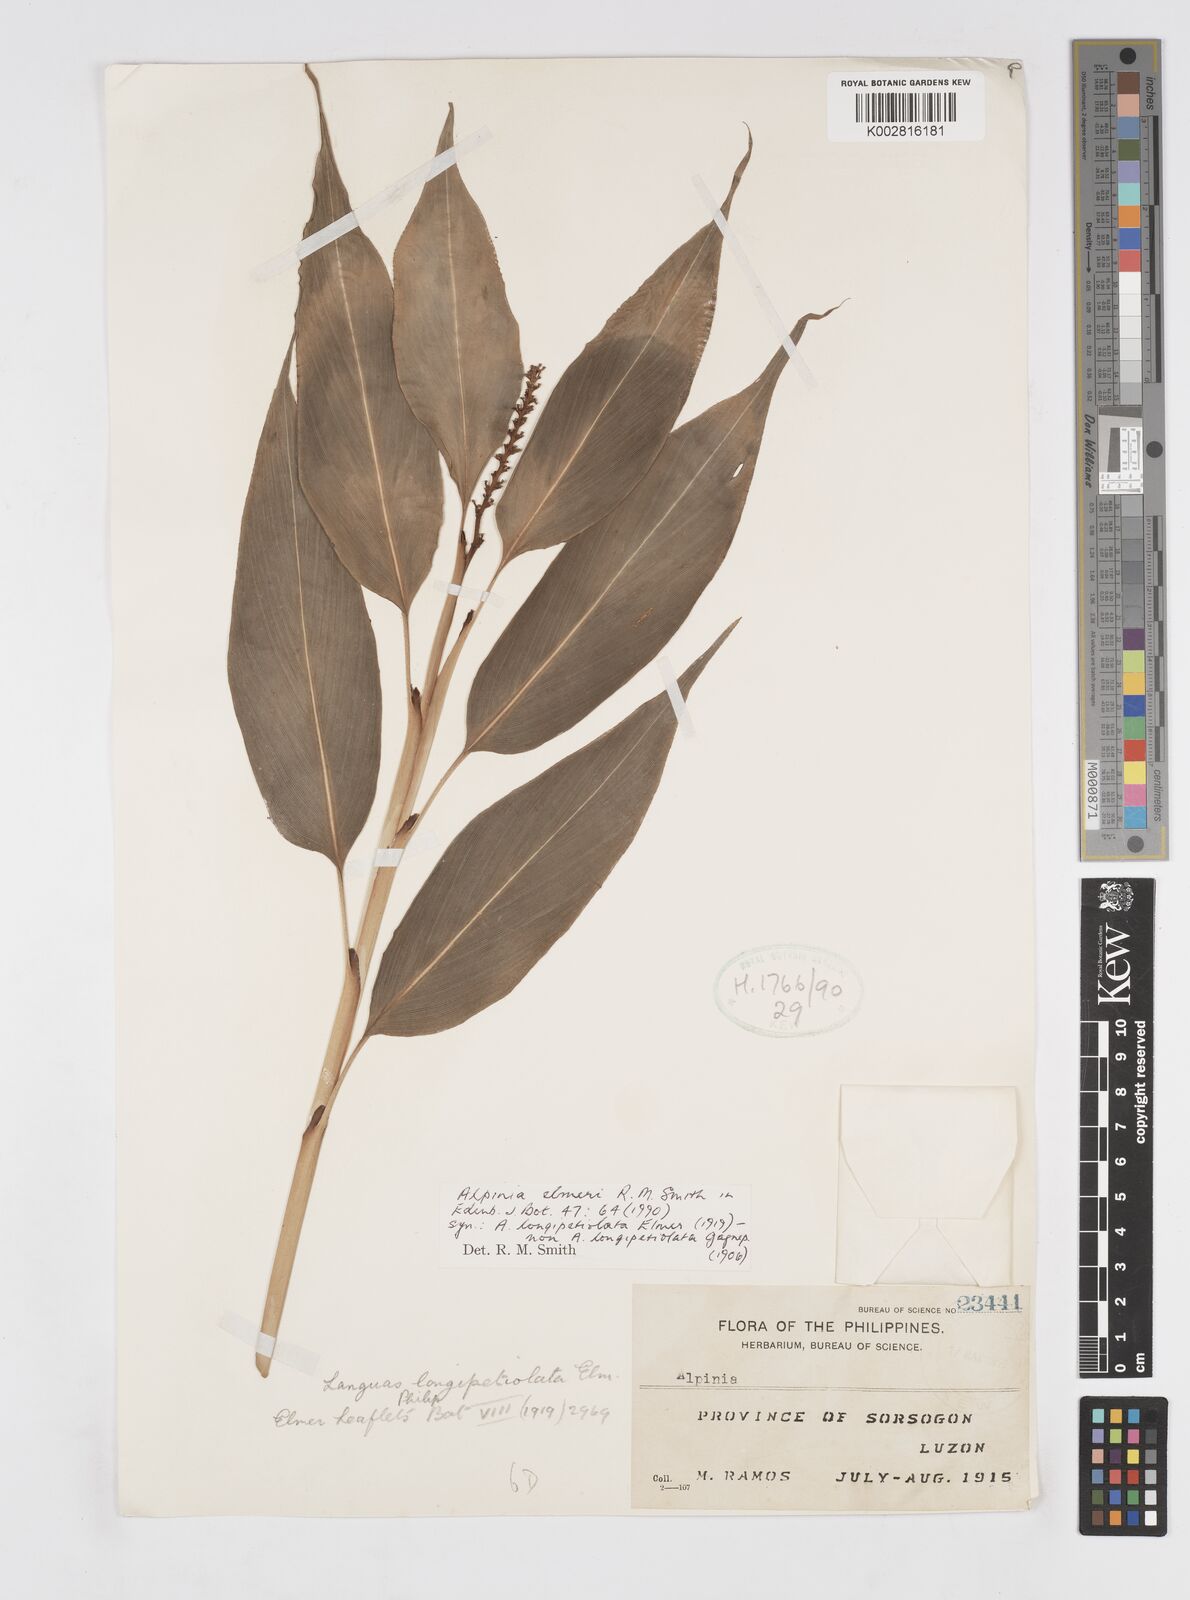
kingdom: Plantae
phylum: Tracheophyta
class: Liliopsida
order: Zingiberales
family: Zingiberaceae
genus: Alpinia
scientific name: Alpinia elmeri
